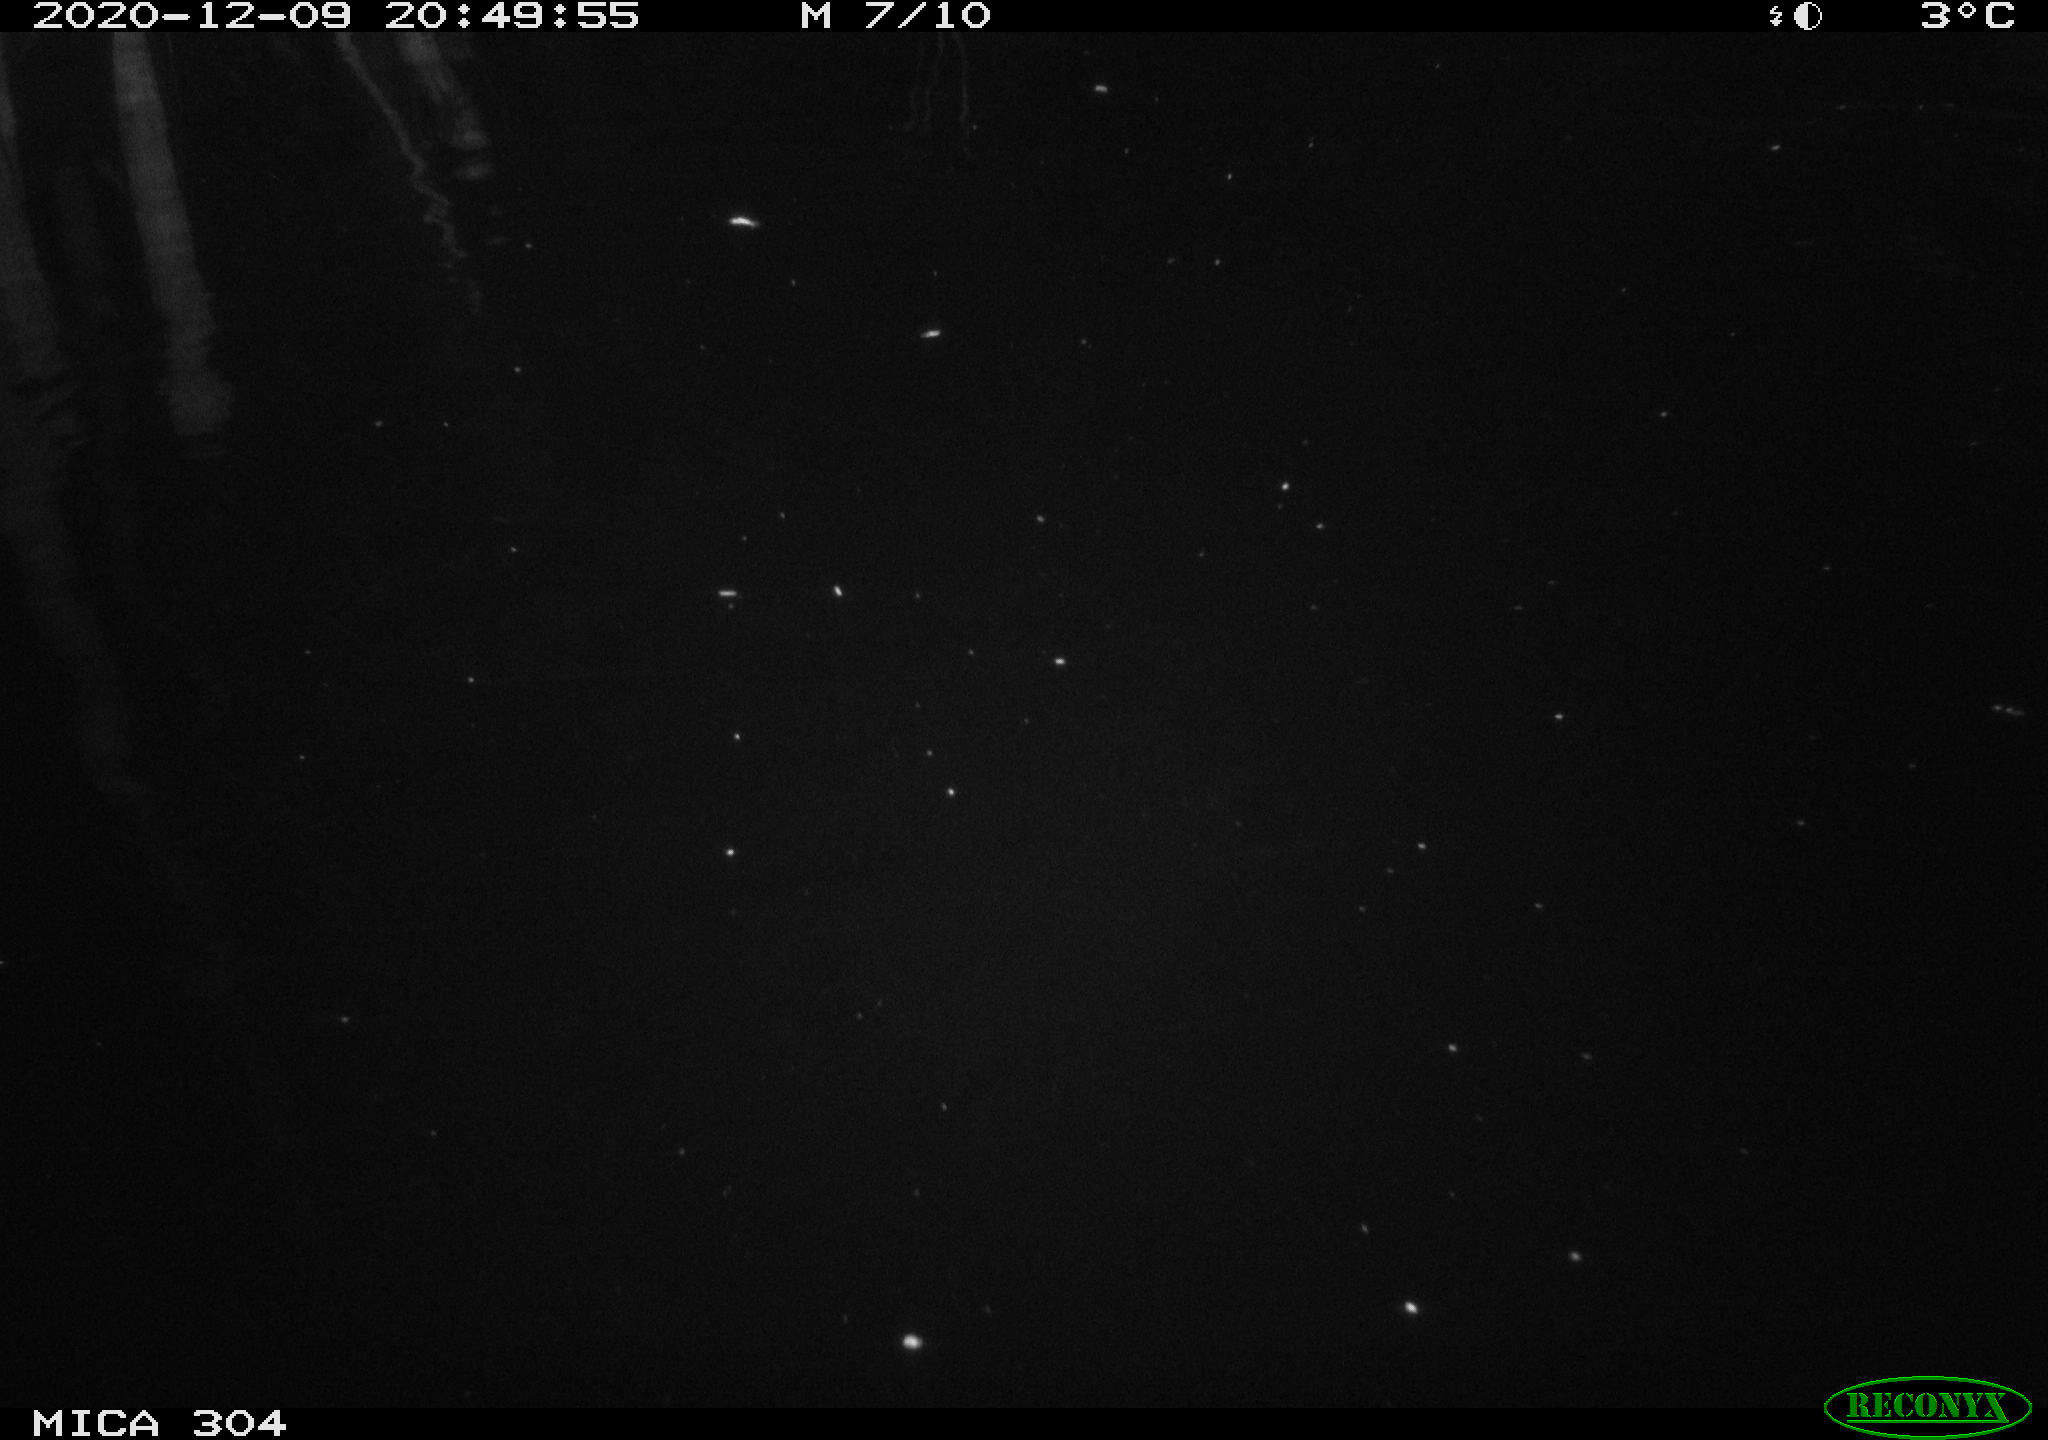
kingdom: Animalia
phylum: Chordata
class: Mammalia
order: Rodentia
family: Muridae
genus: Rattus
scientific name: Rattus norvegicus
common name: Brown rat
